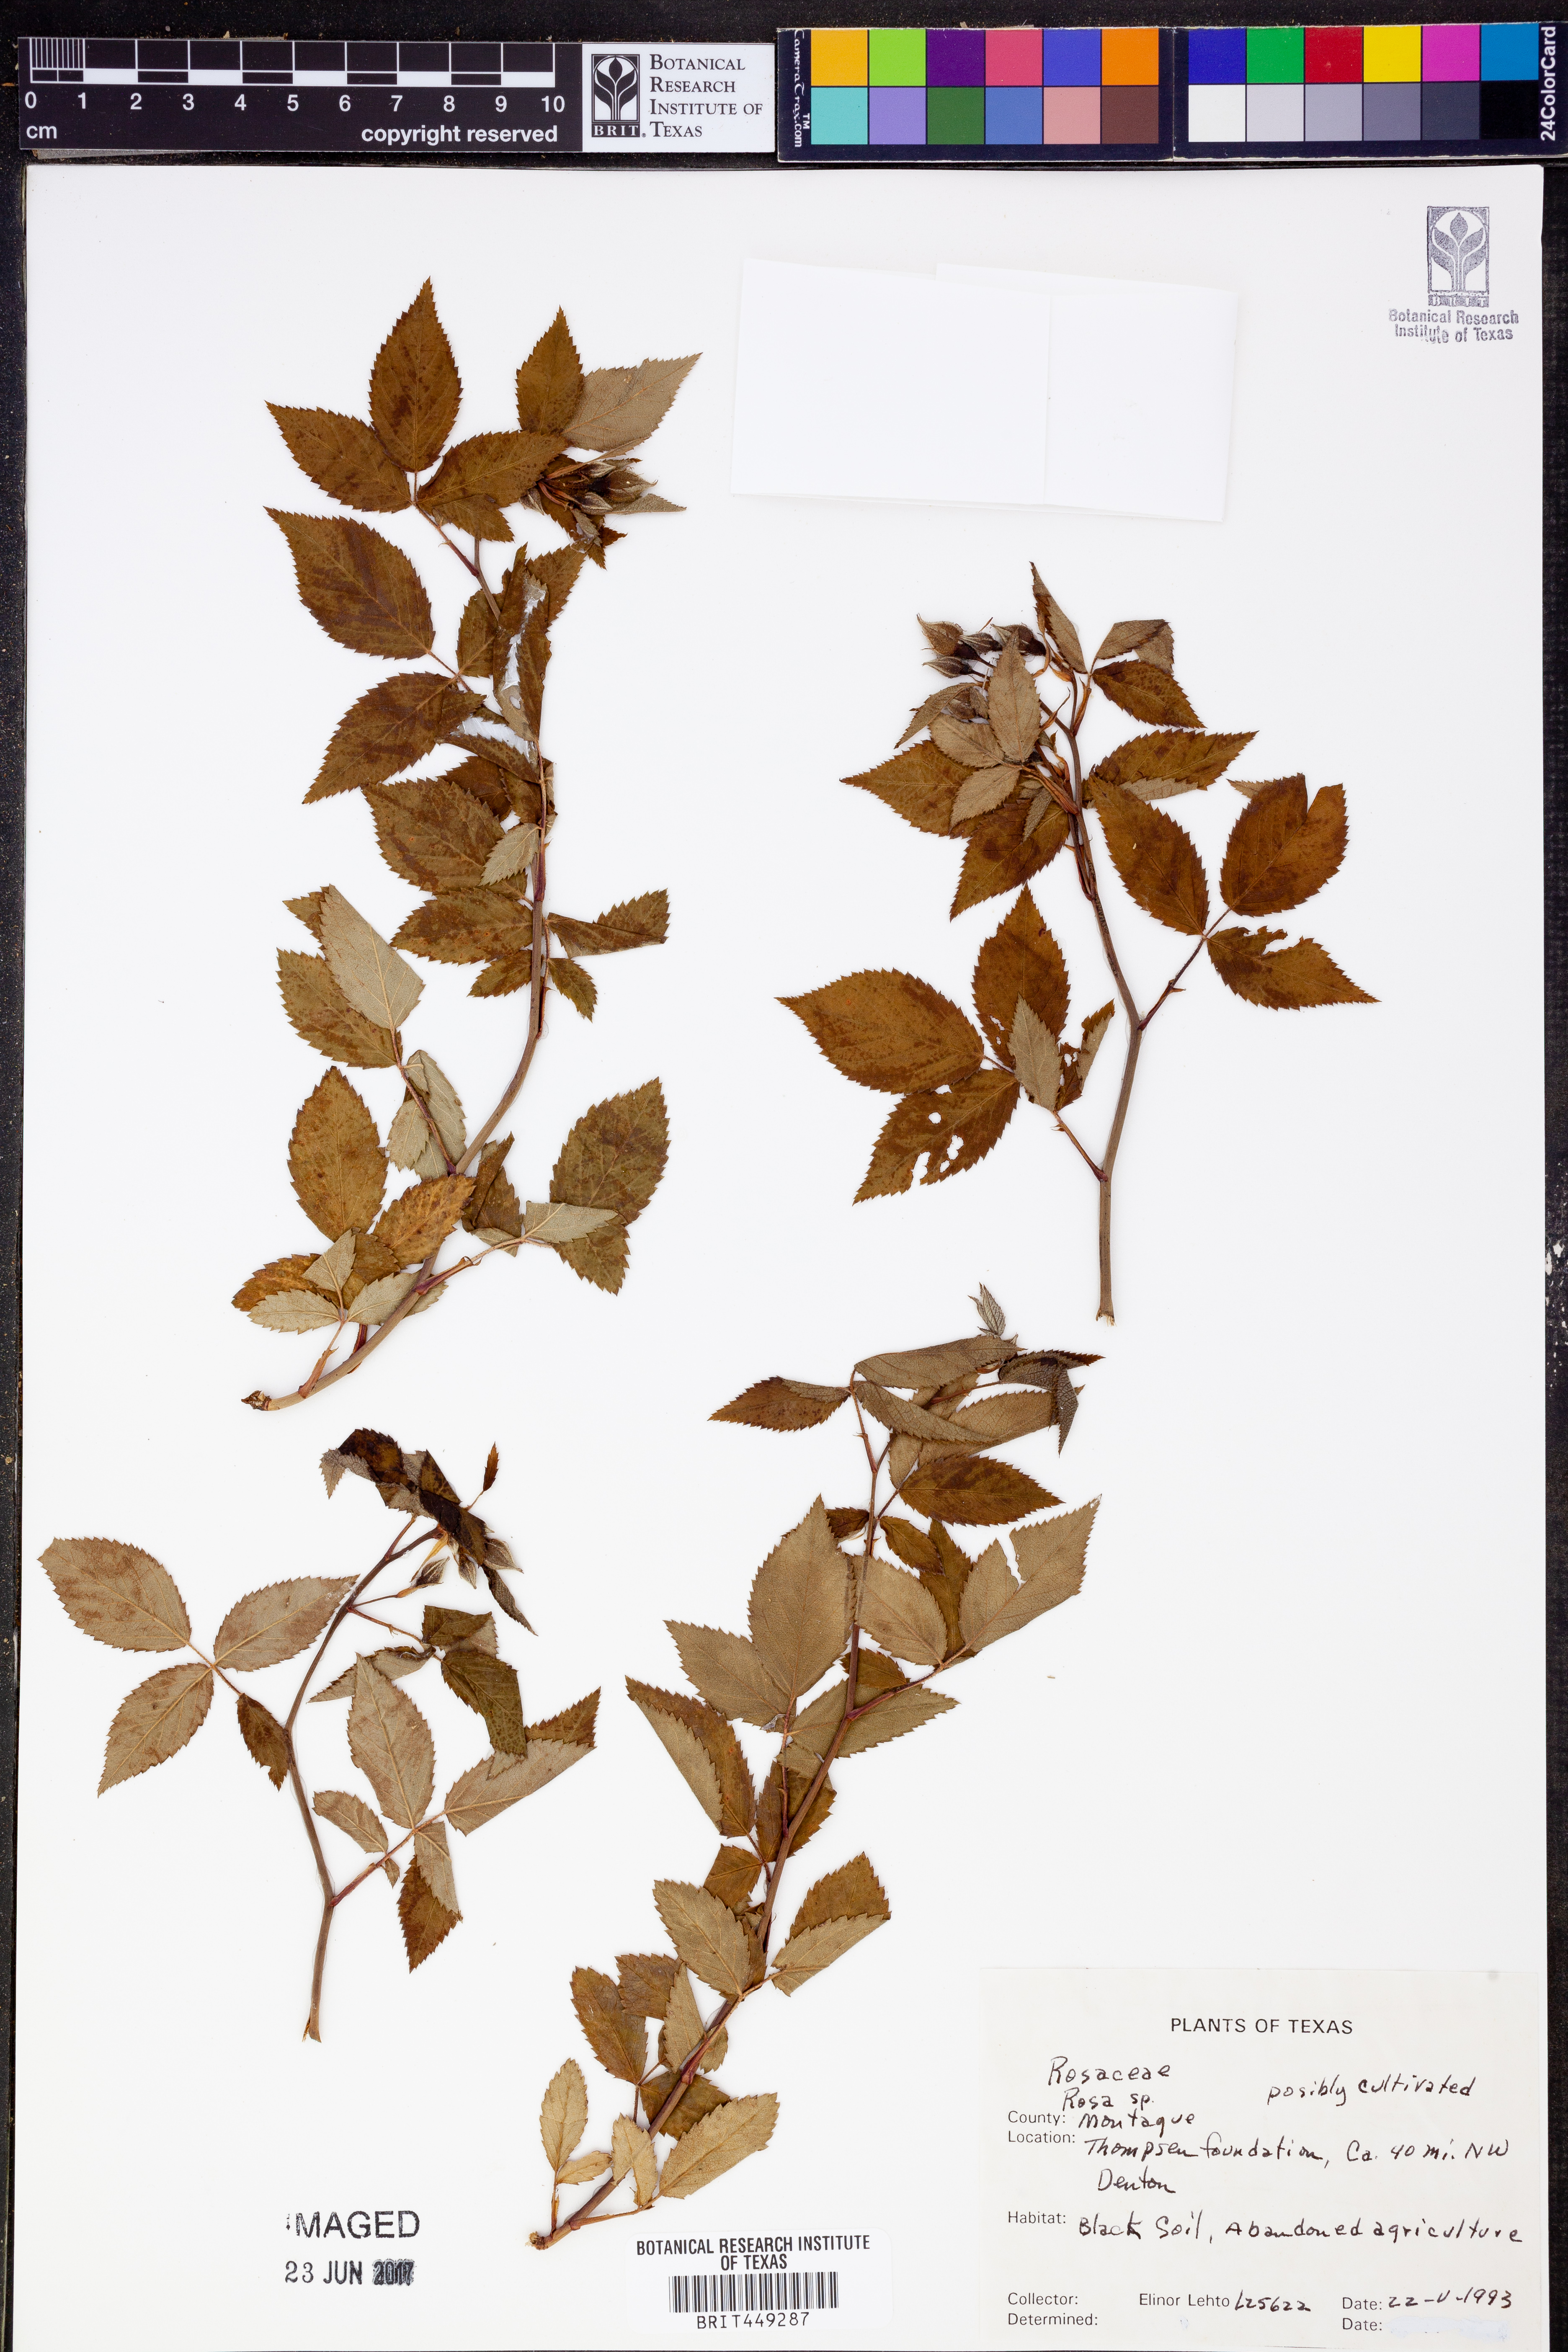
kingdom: Plantae
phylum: Tracheophyta
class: Magnoliopsida
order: Rosales
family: Rosaceae
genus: Rosa
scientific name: Rosa
